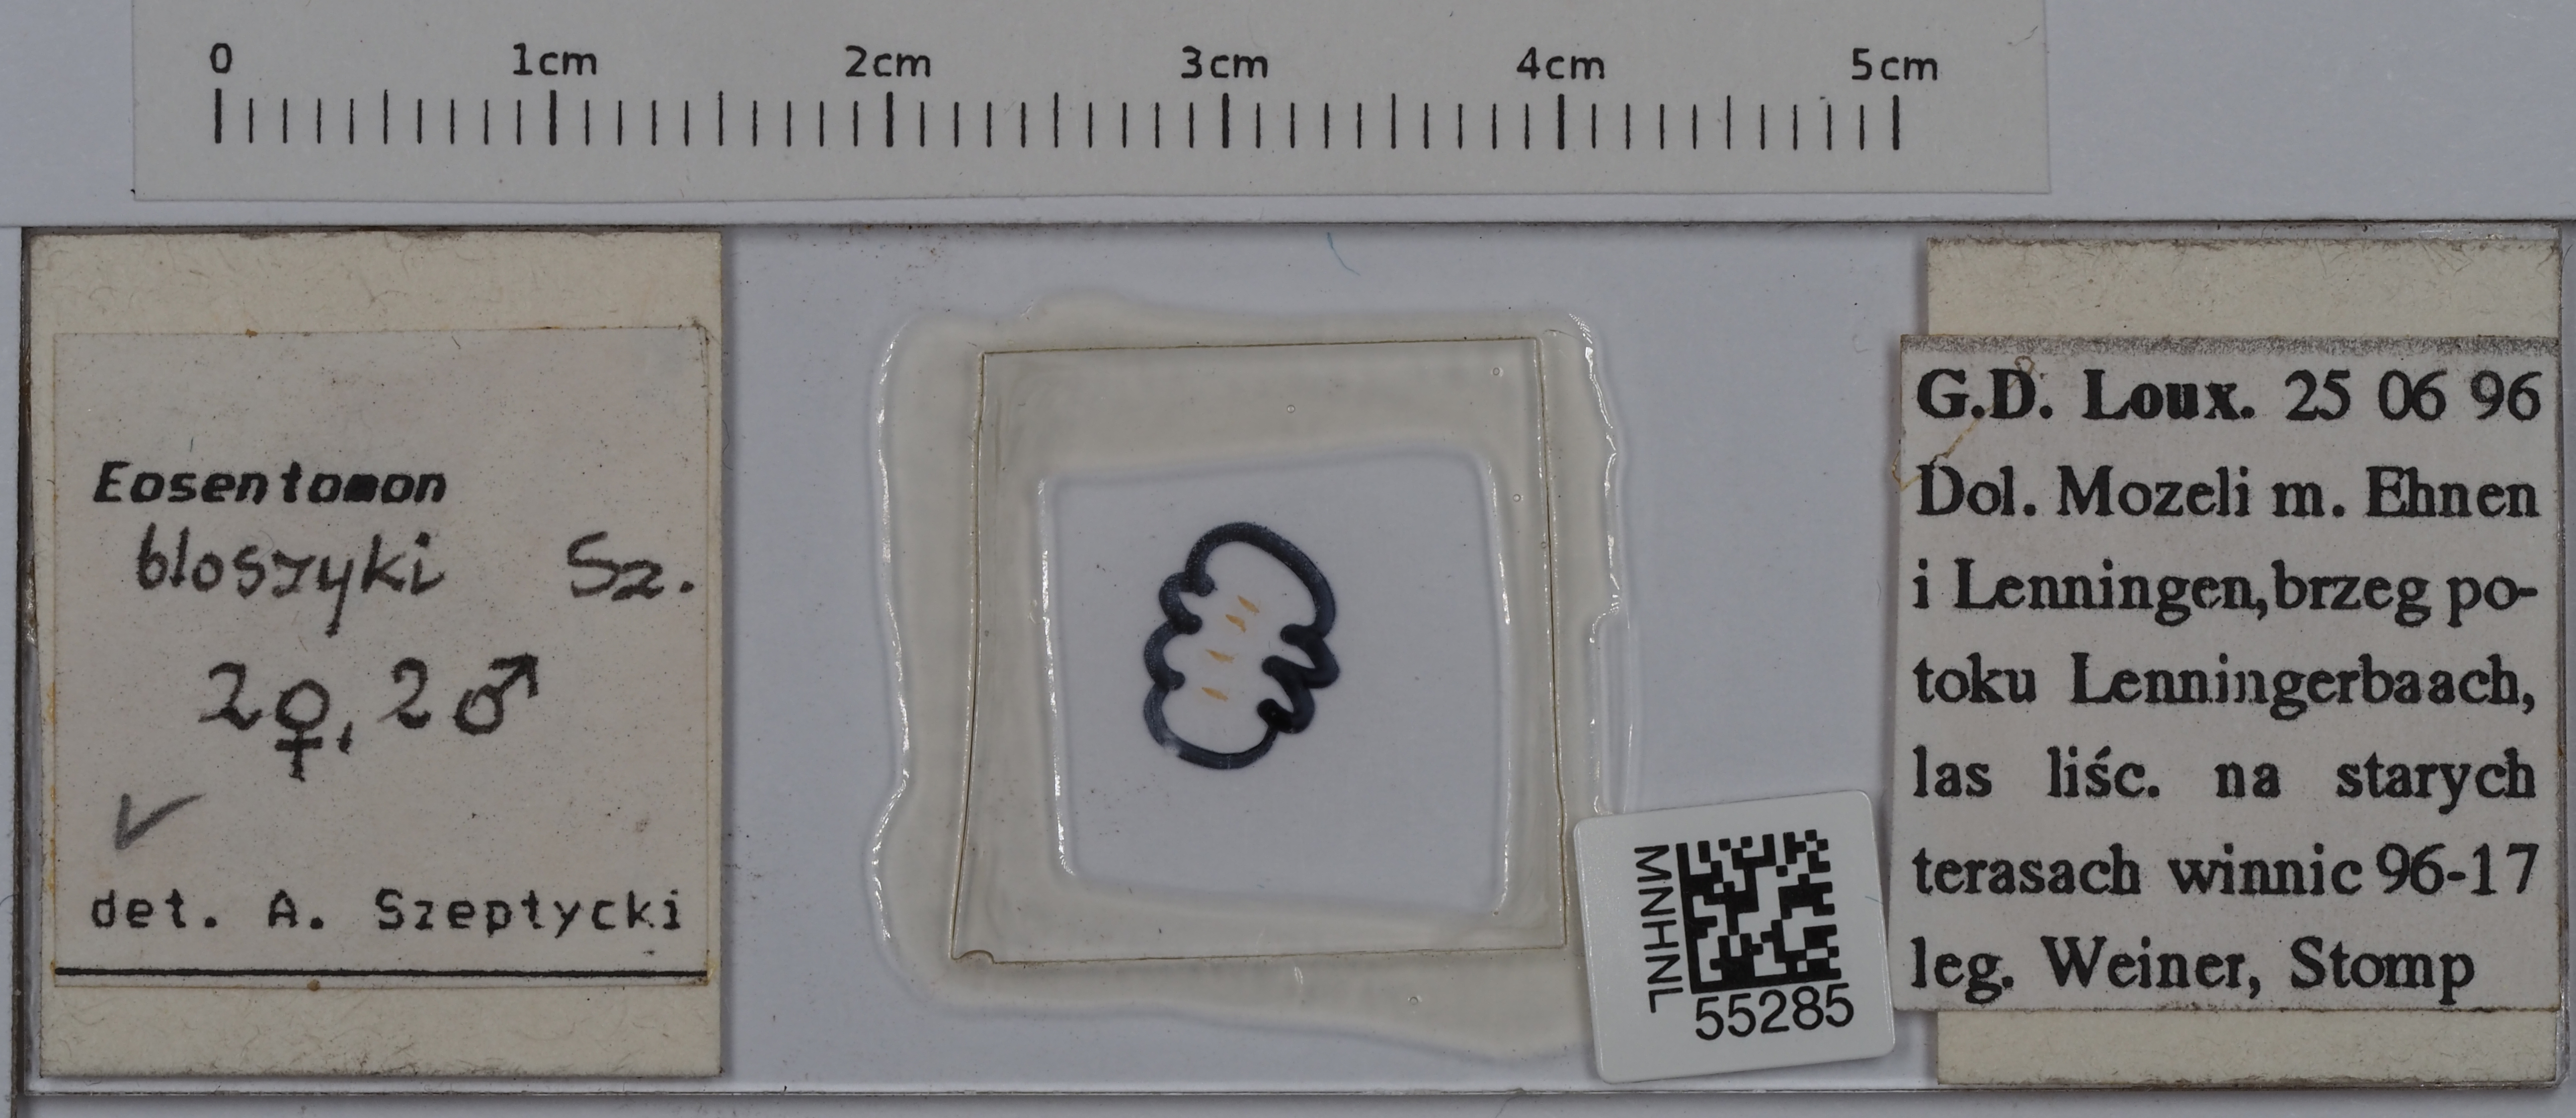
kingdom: Animalia
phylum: Arthropoda
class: Protura
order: Protura
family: Eosentomidae
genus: Eosentomon
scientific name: Eosentomon bloszyki
